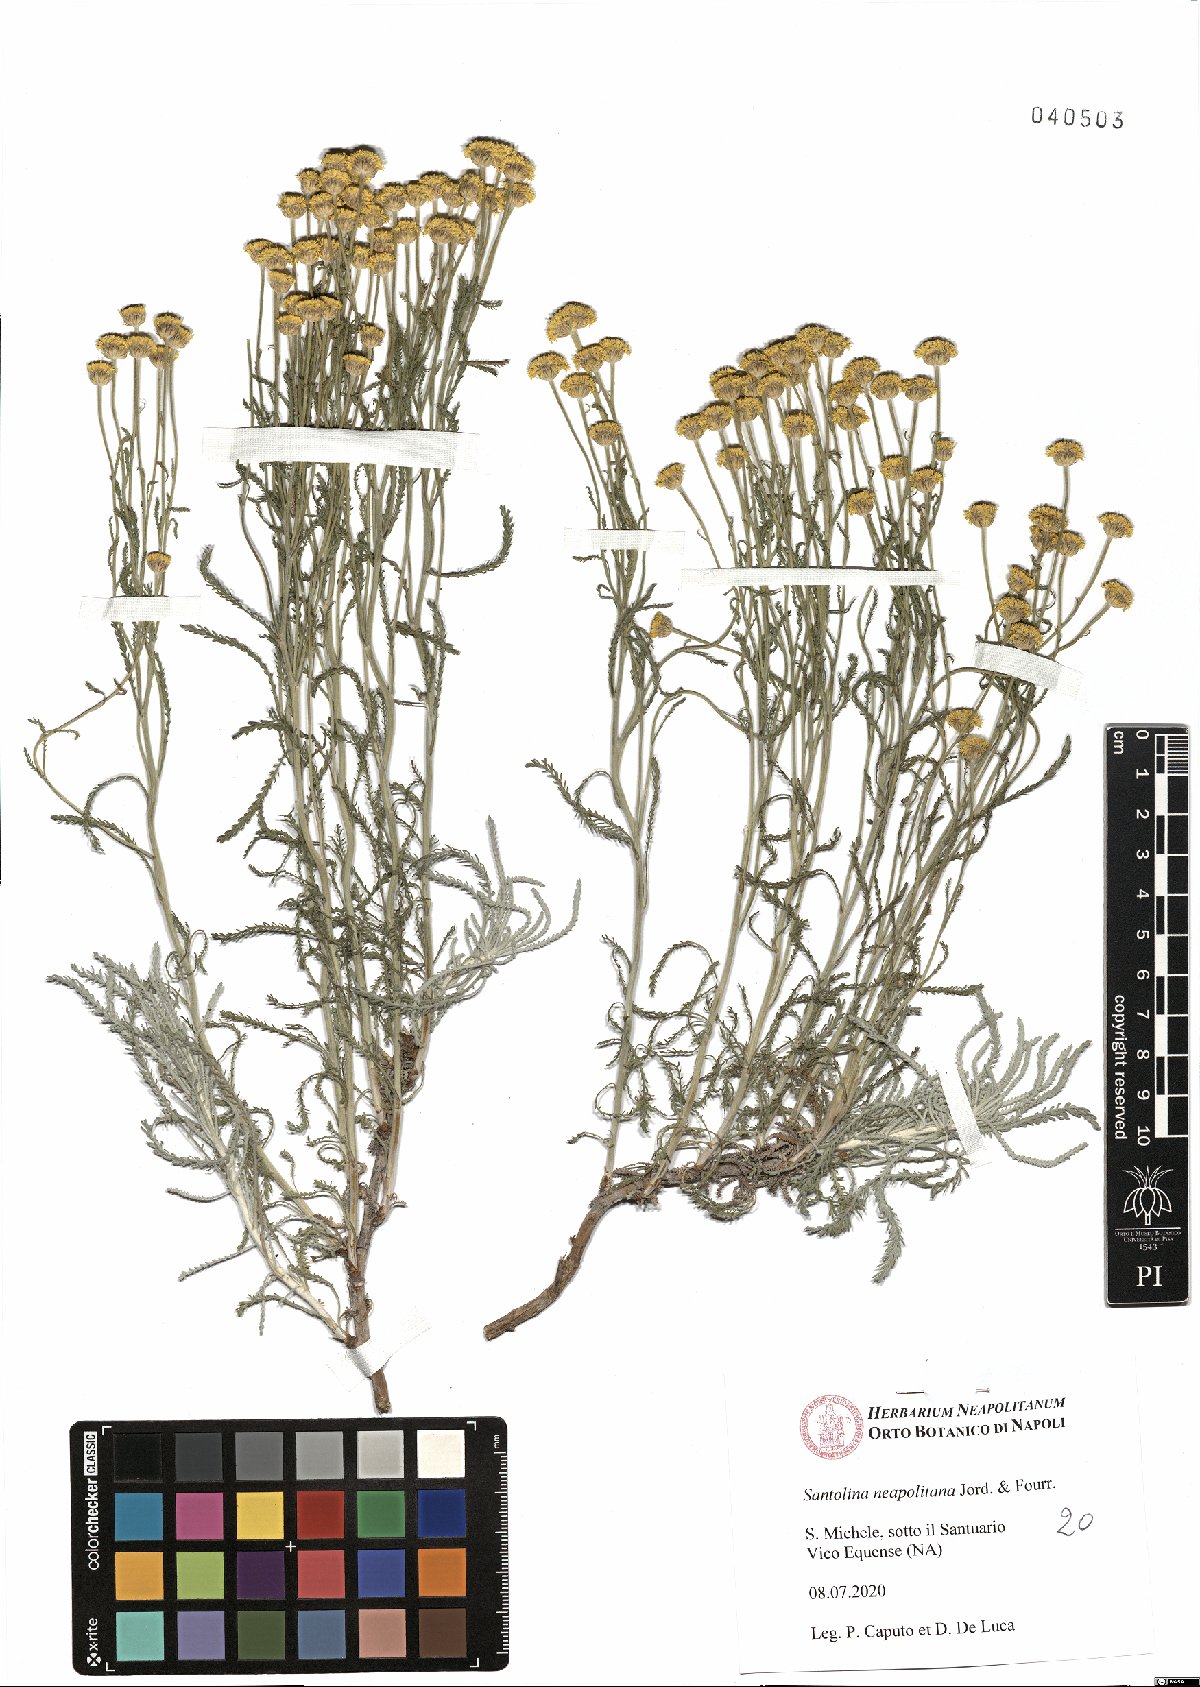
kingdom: Plantae
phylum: Tracheophyta
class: Magnoliopsida
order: Asterales
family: Asteraceae
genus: Santolina
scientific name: Santolina neapolitana
